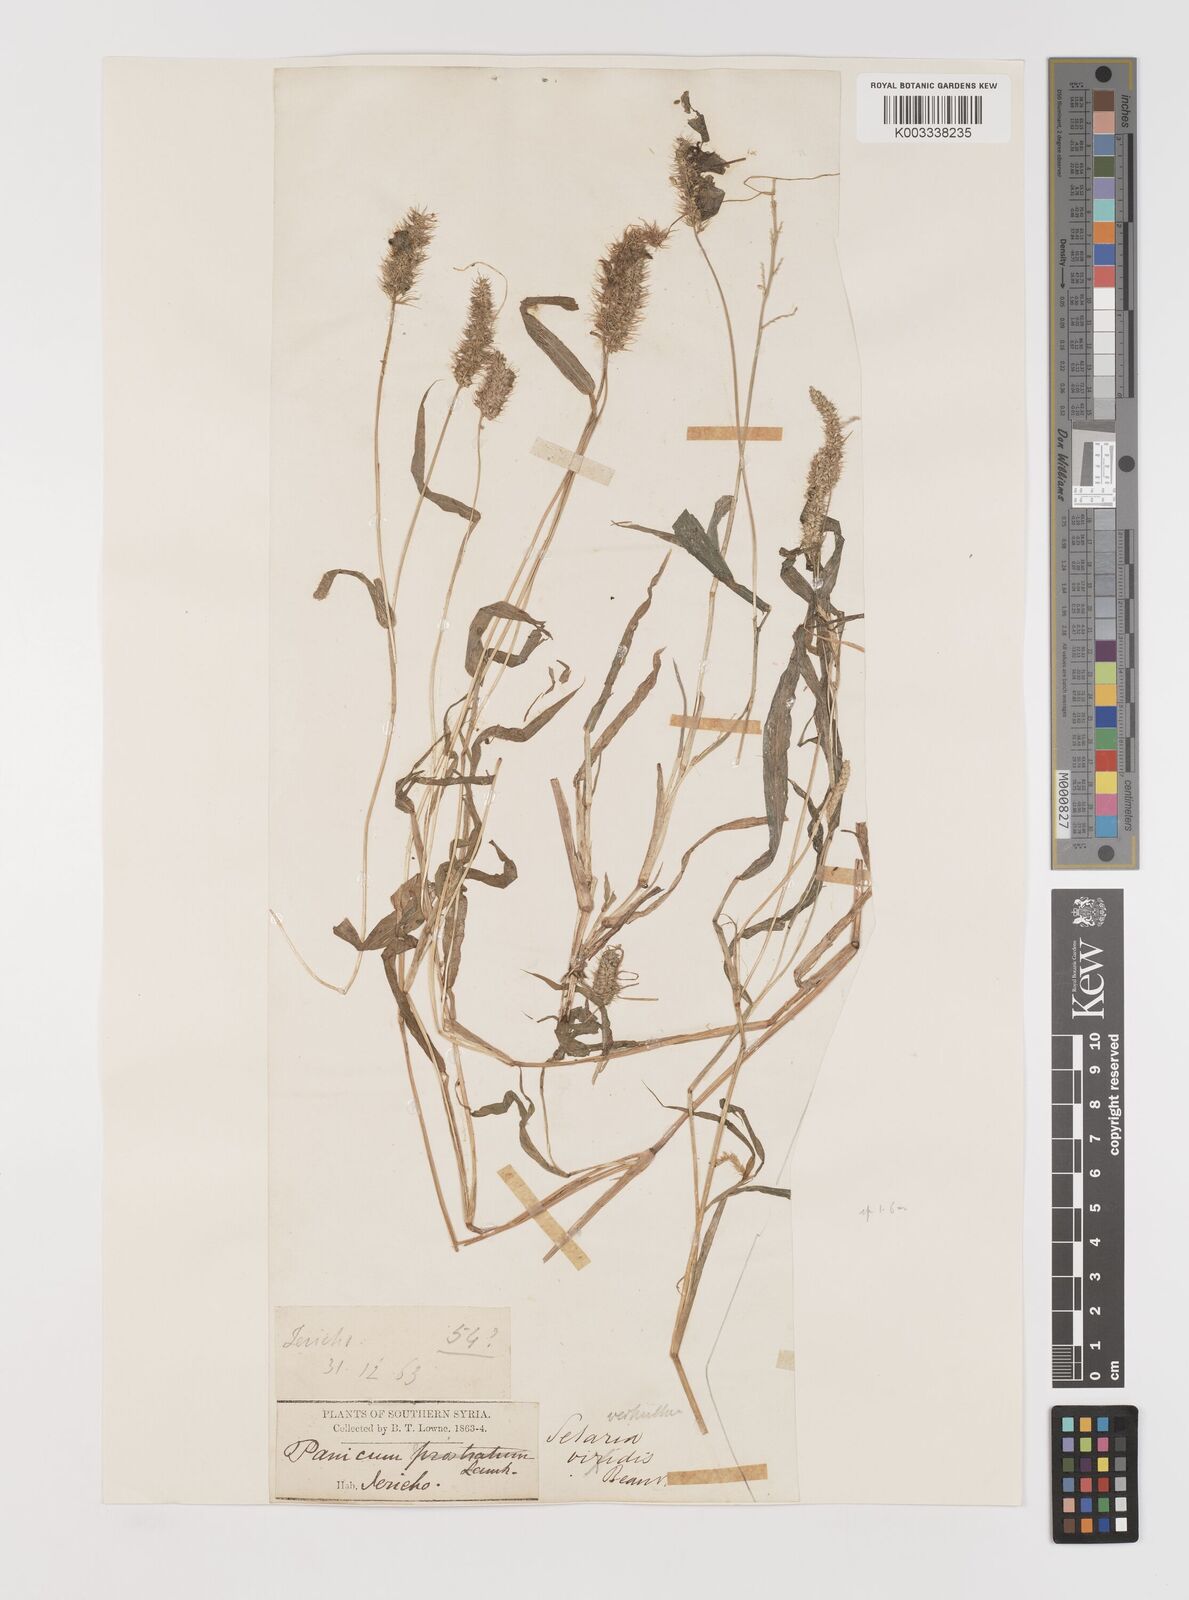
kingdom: Plantae
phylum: Tracheophyta
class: Liliopsida
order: Poales
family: Poaceae
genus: Setaria
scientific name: Setaria verticillata
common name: Hooked bristlegrass
